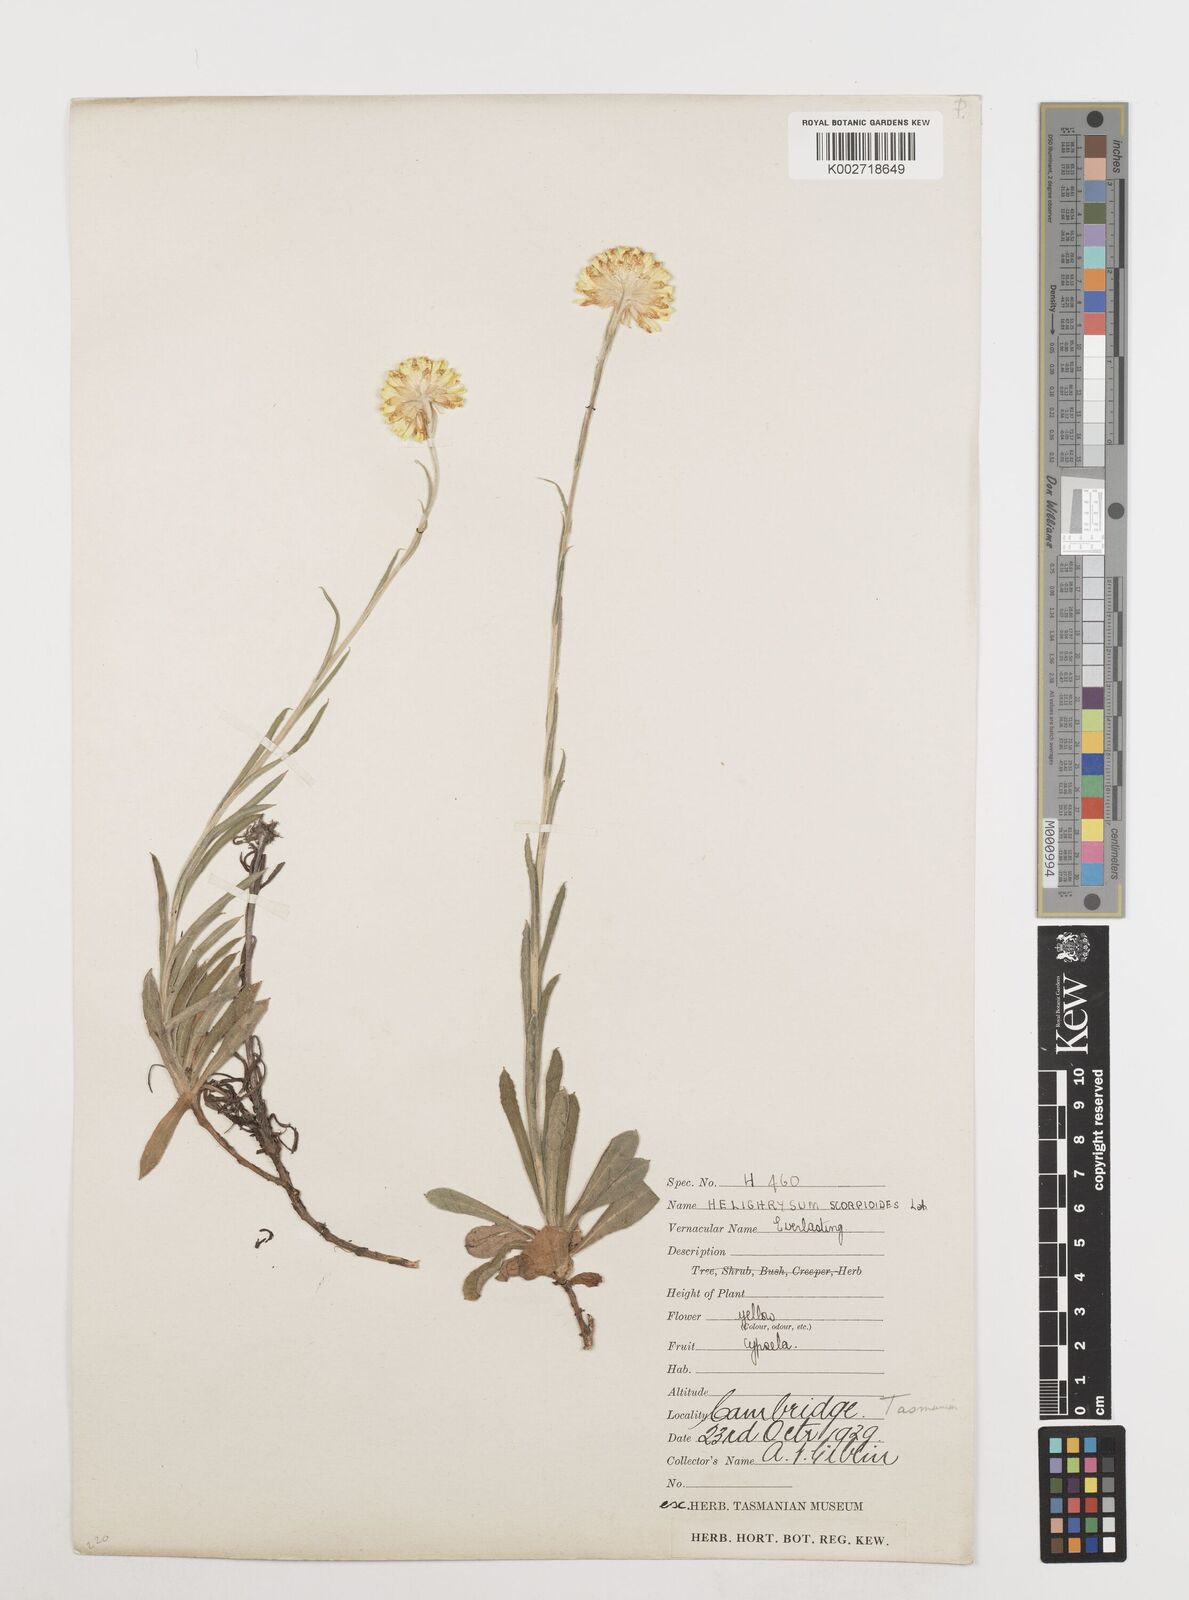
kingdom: Plantae
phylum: Tracheophyta
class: Magnoliopsida
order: Asterales
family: Asteraceae
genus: Coronidium
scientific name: Coronidium scorpioides
